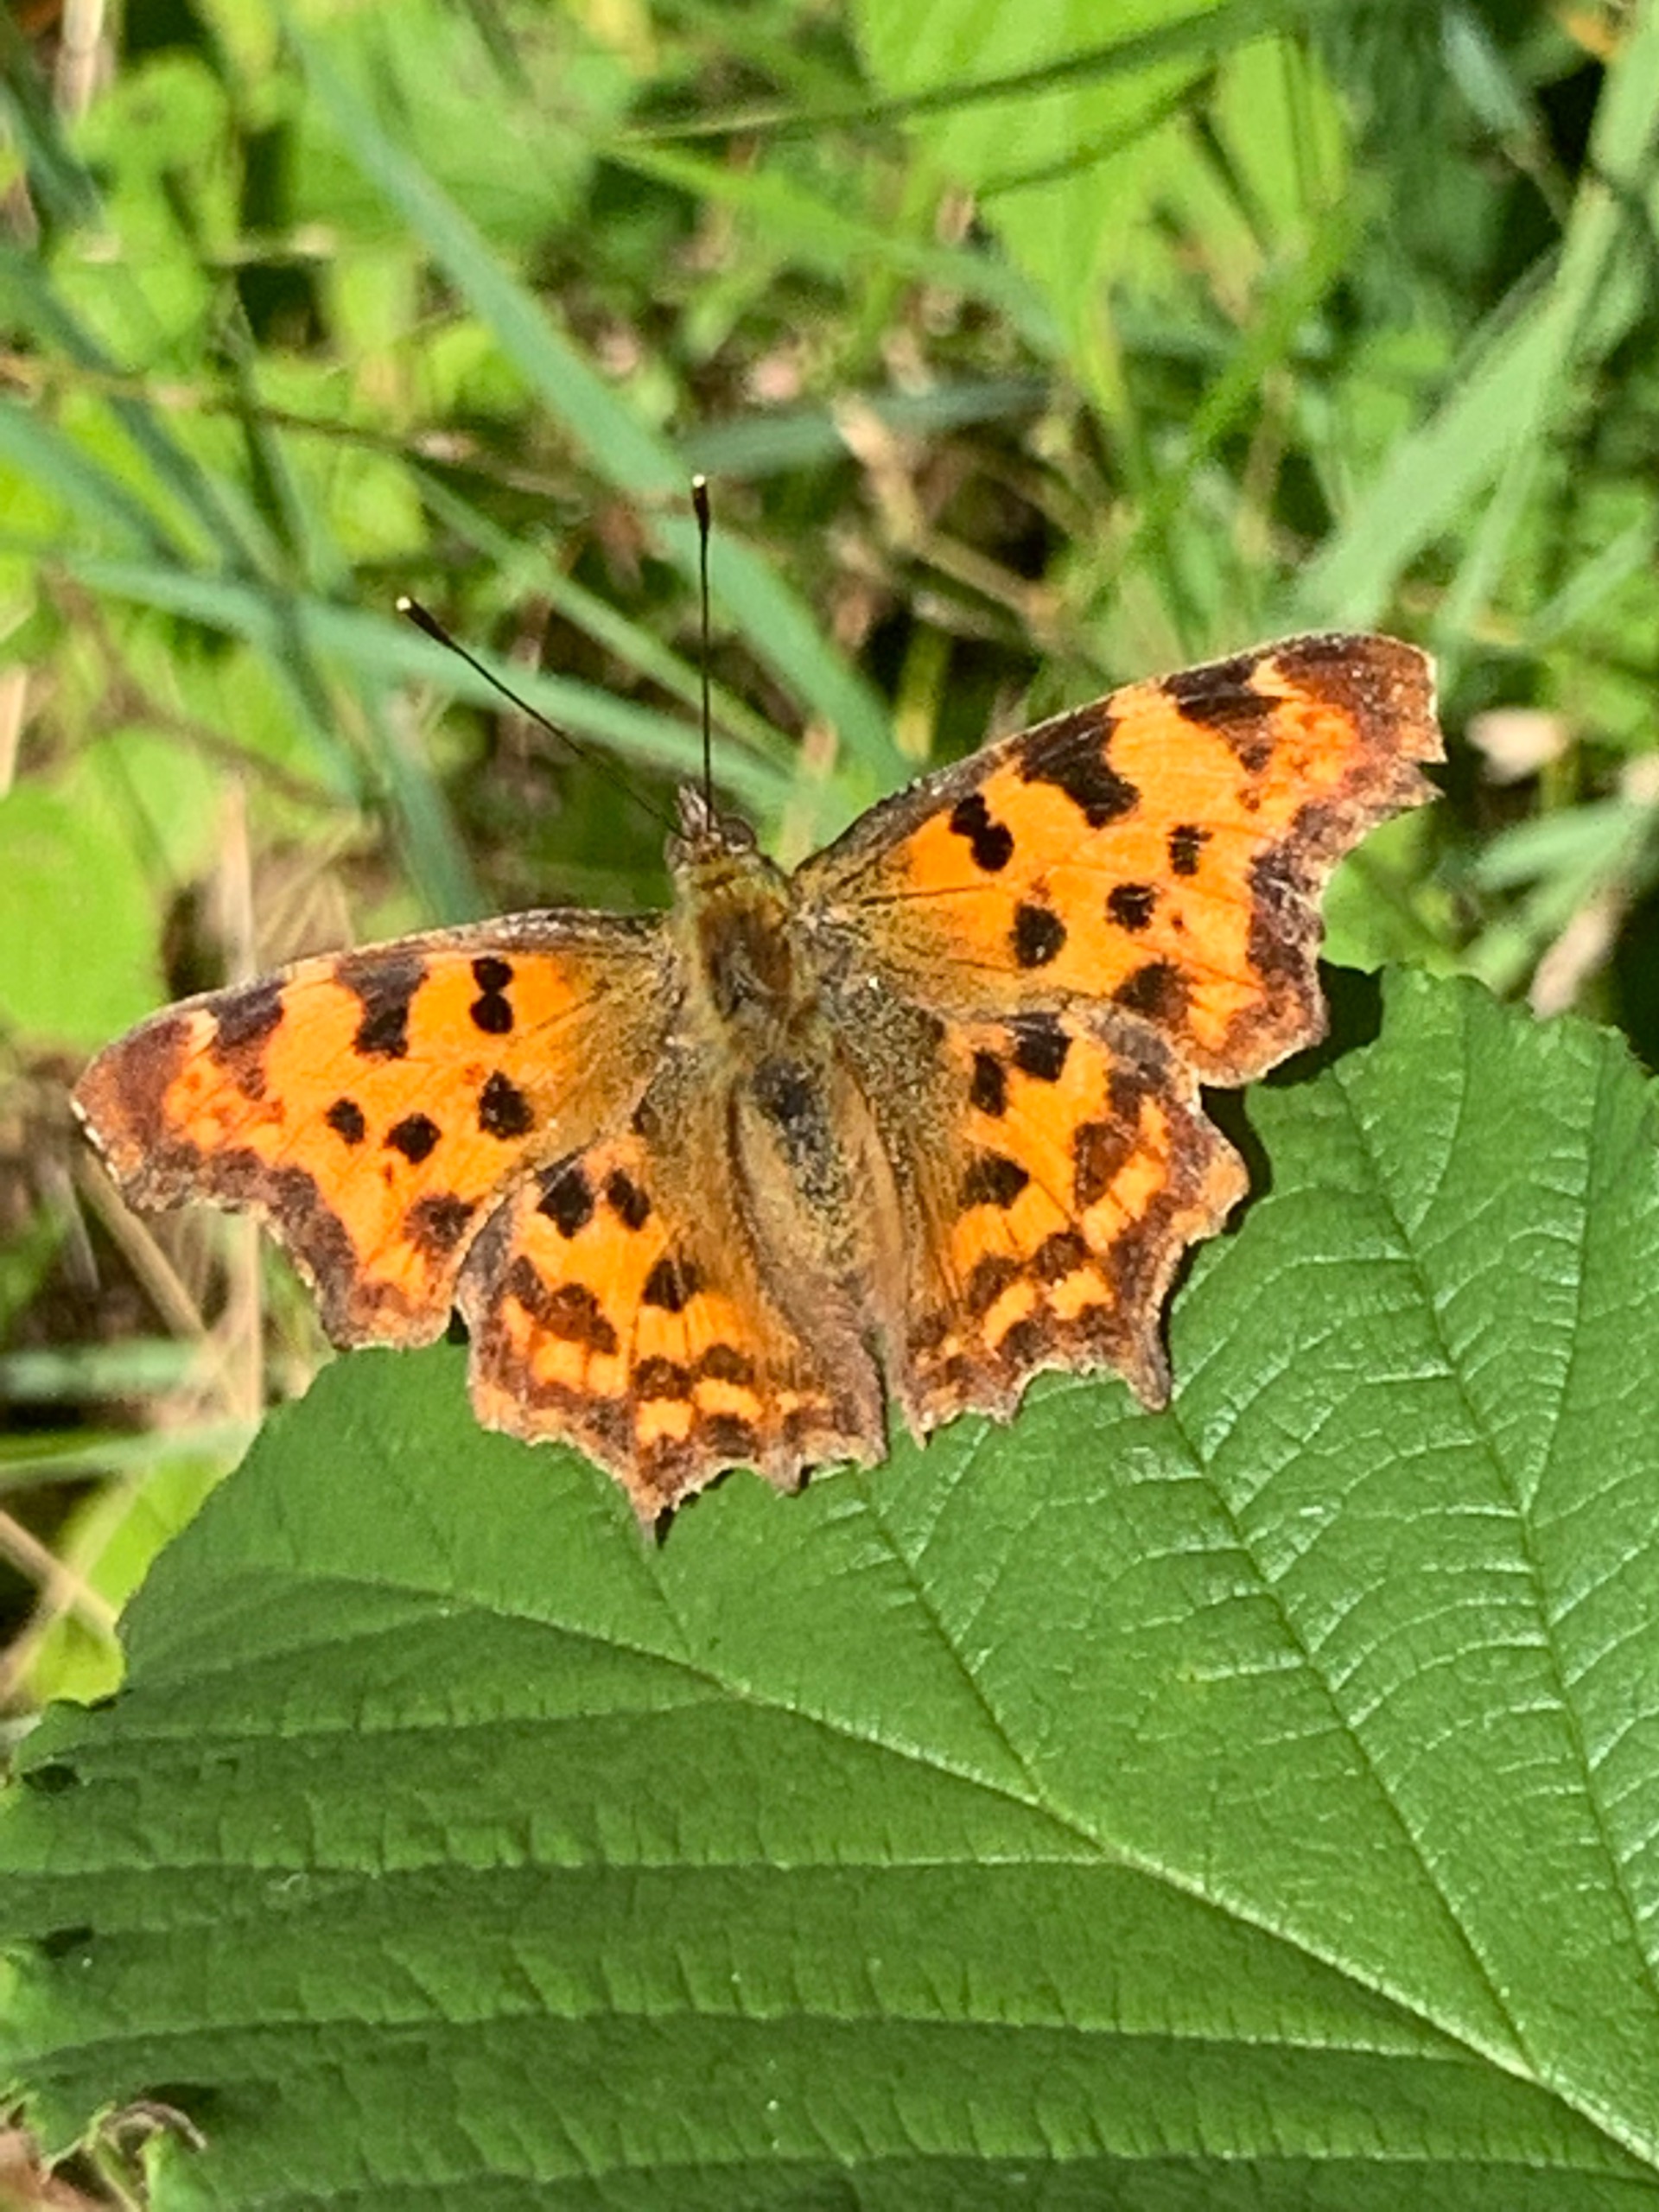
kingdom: Animalia
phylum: Arthropoda
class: Insecta
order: Lepidoptera
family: Nymphalidae
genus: Polygonia
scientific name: Polygonia c-album
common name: Det hvide C
